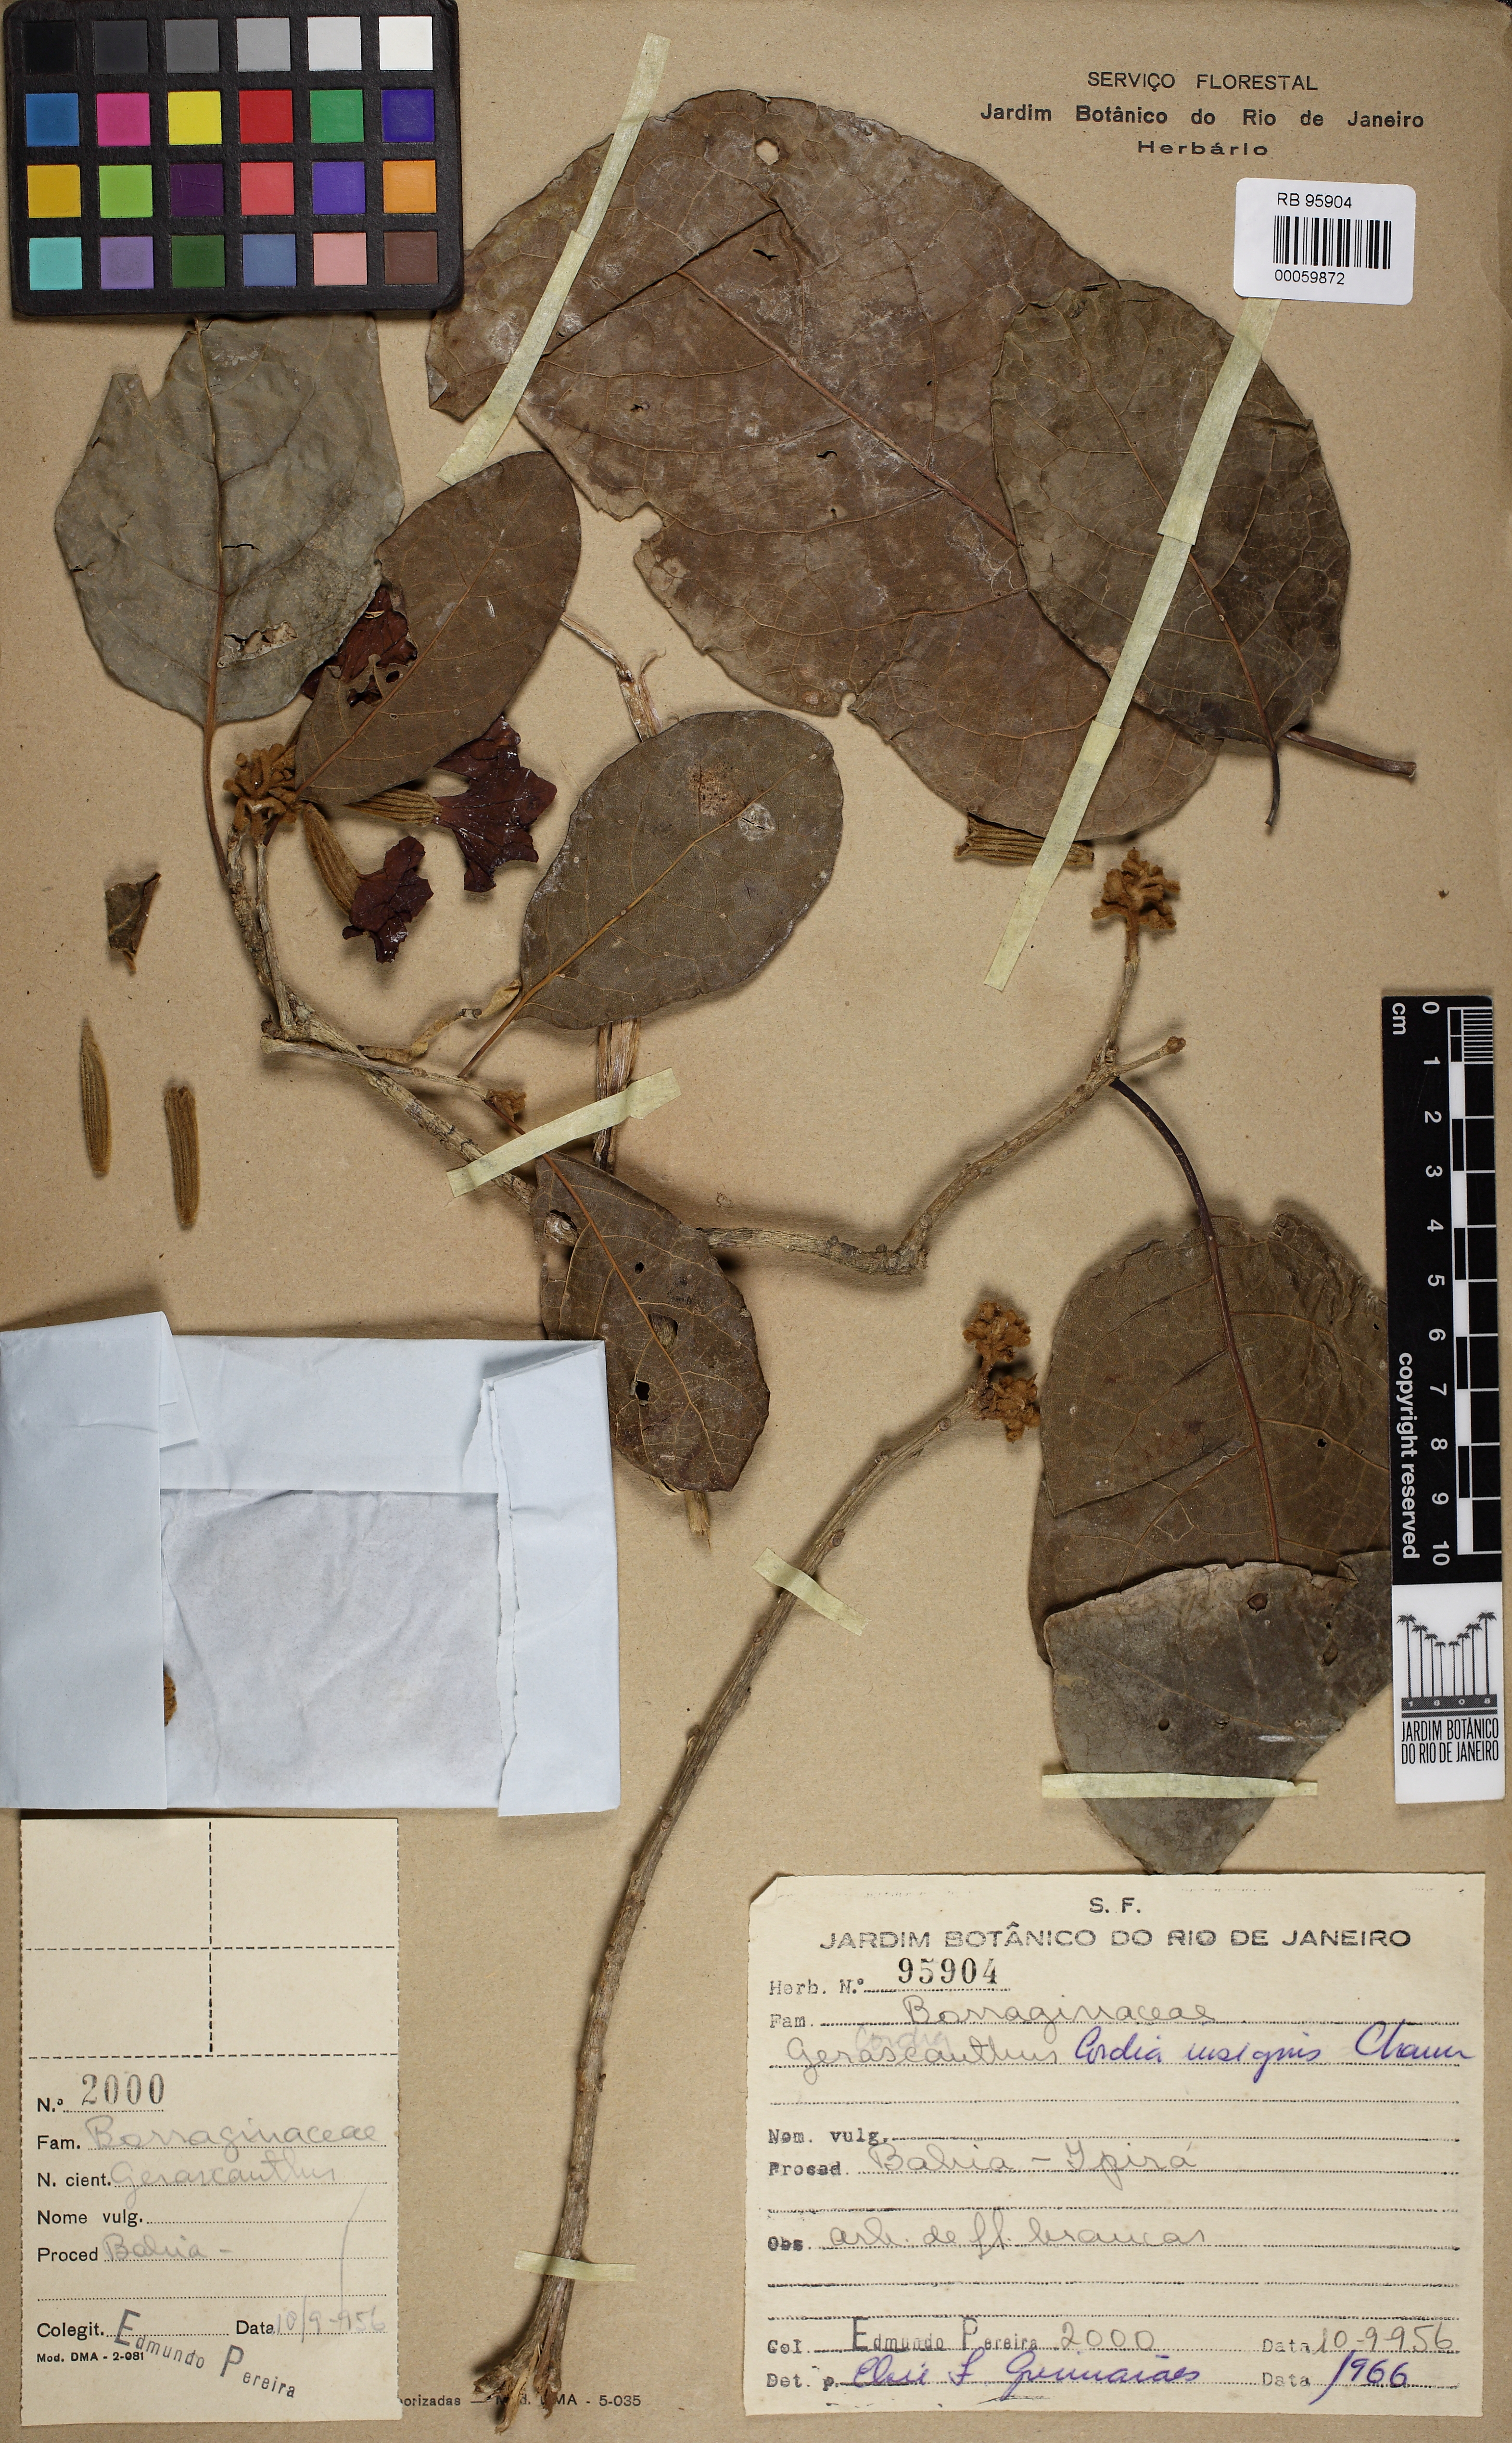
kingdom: Plantae
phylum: Tracheophyta
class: Magnoliopsida
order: Boraginales
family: Cordiaceae
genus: Cordia
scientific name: Cordia insignis
